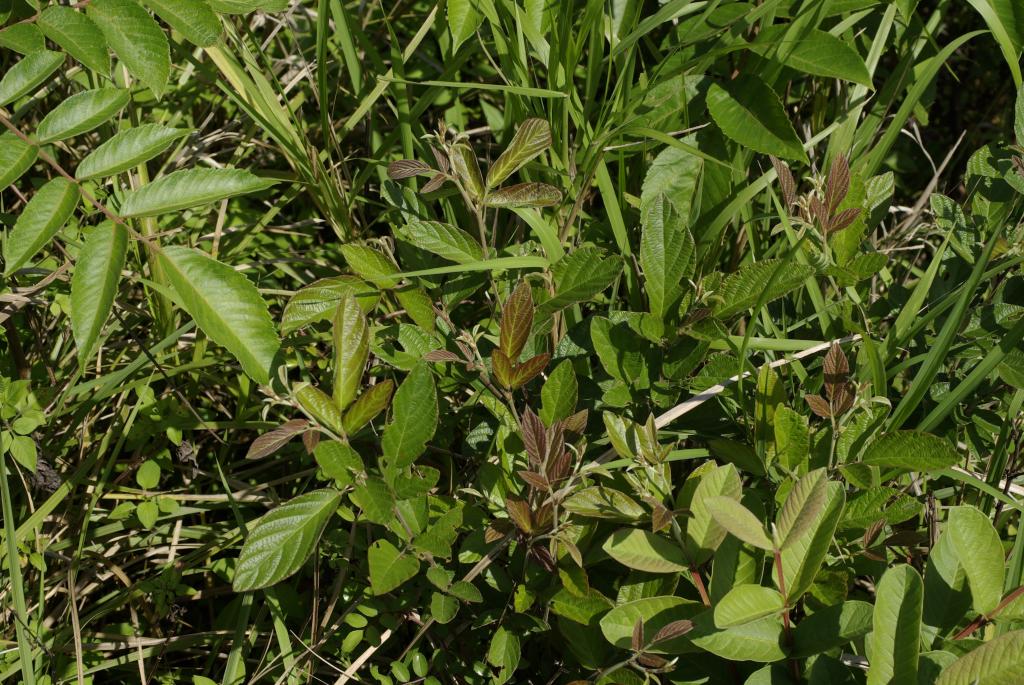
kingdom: Plantae
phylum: Tracheophyta
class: Magnoliopsida
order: Fabales
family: Fabaceae
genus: Phyllodium
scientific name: Phyllodium pulchellum
